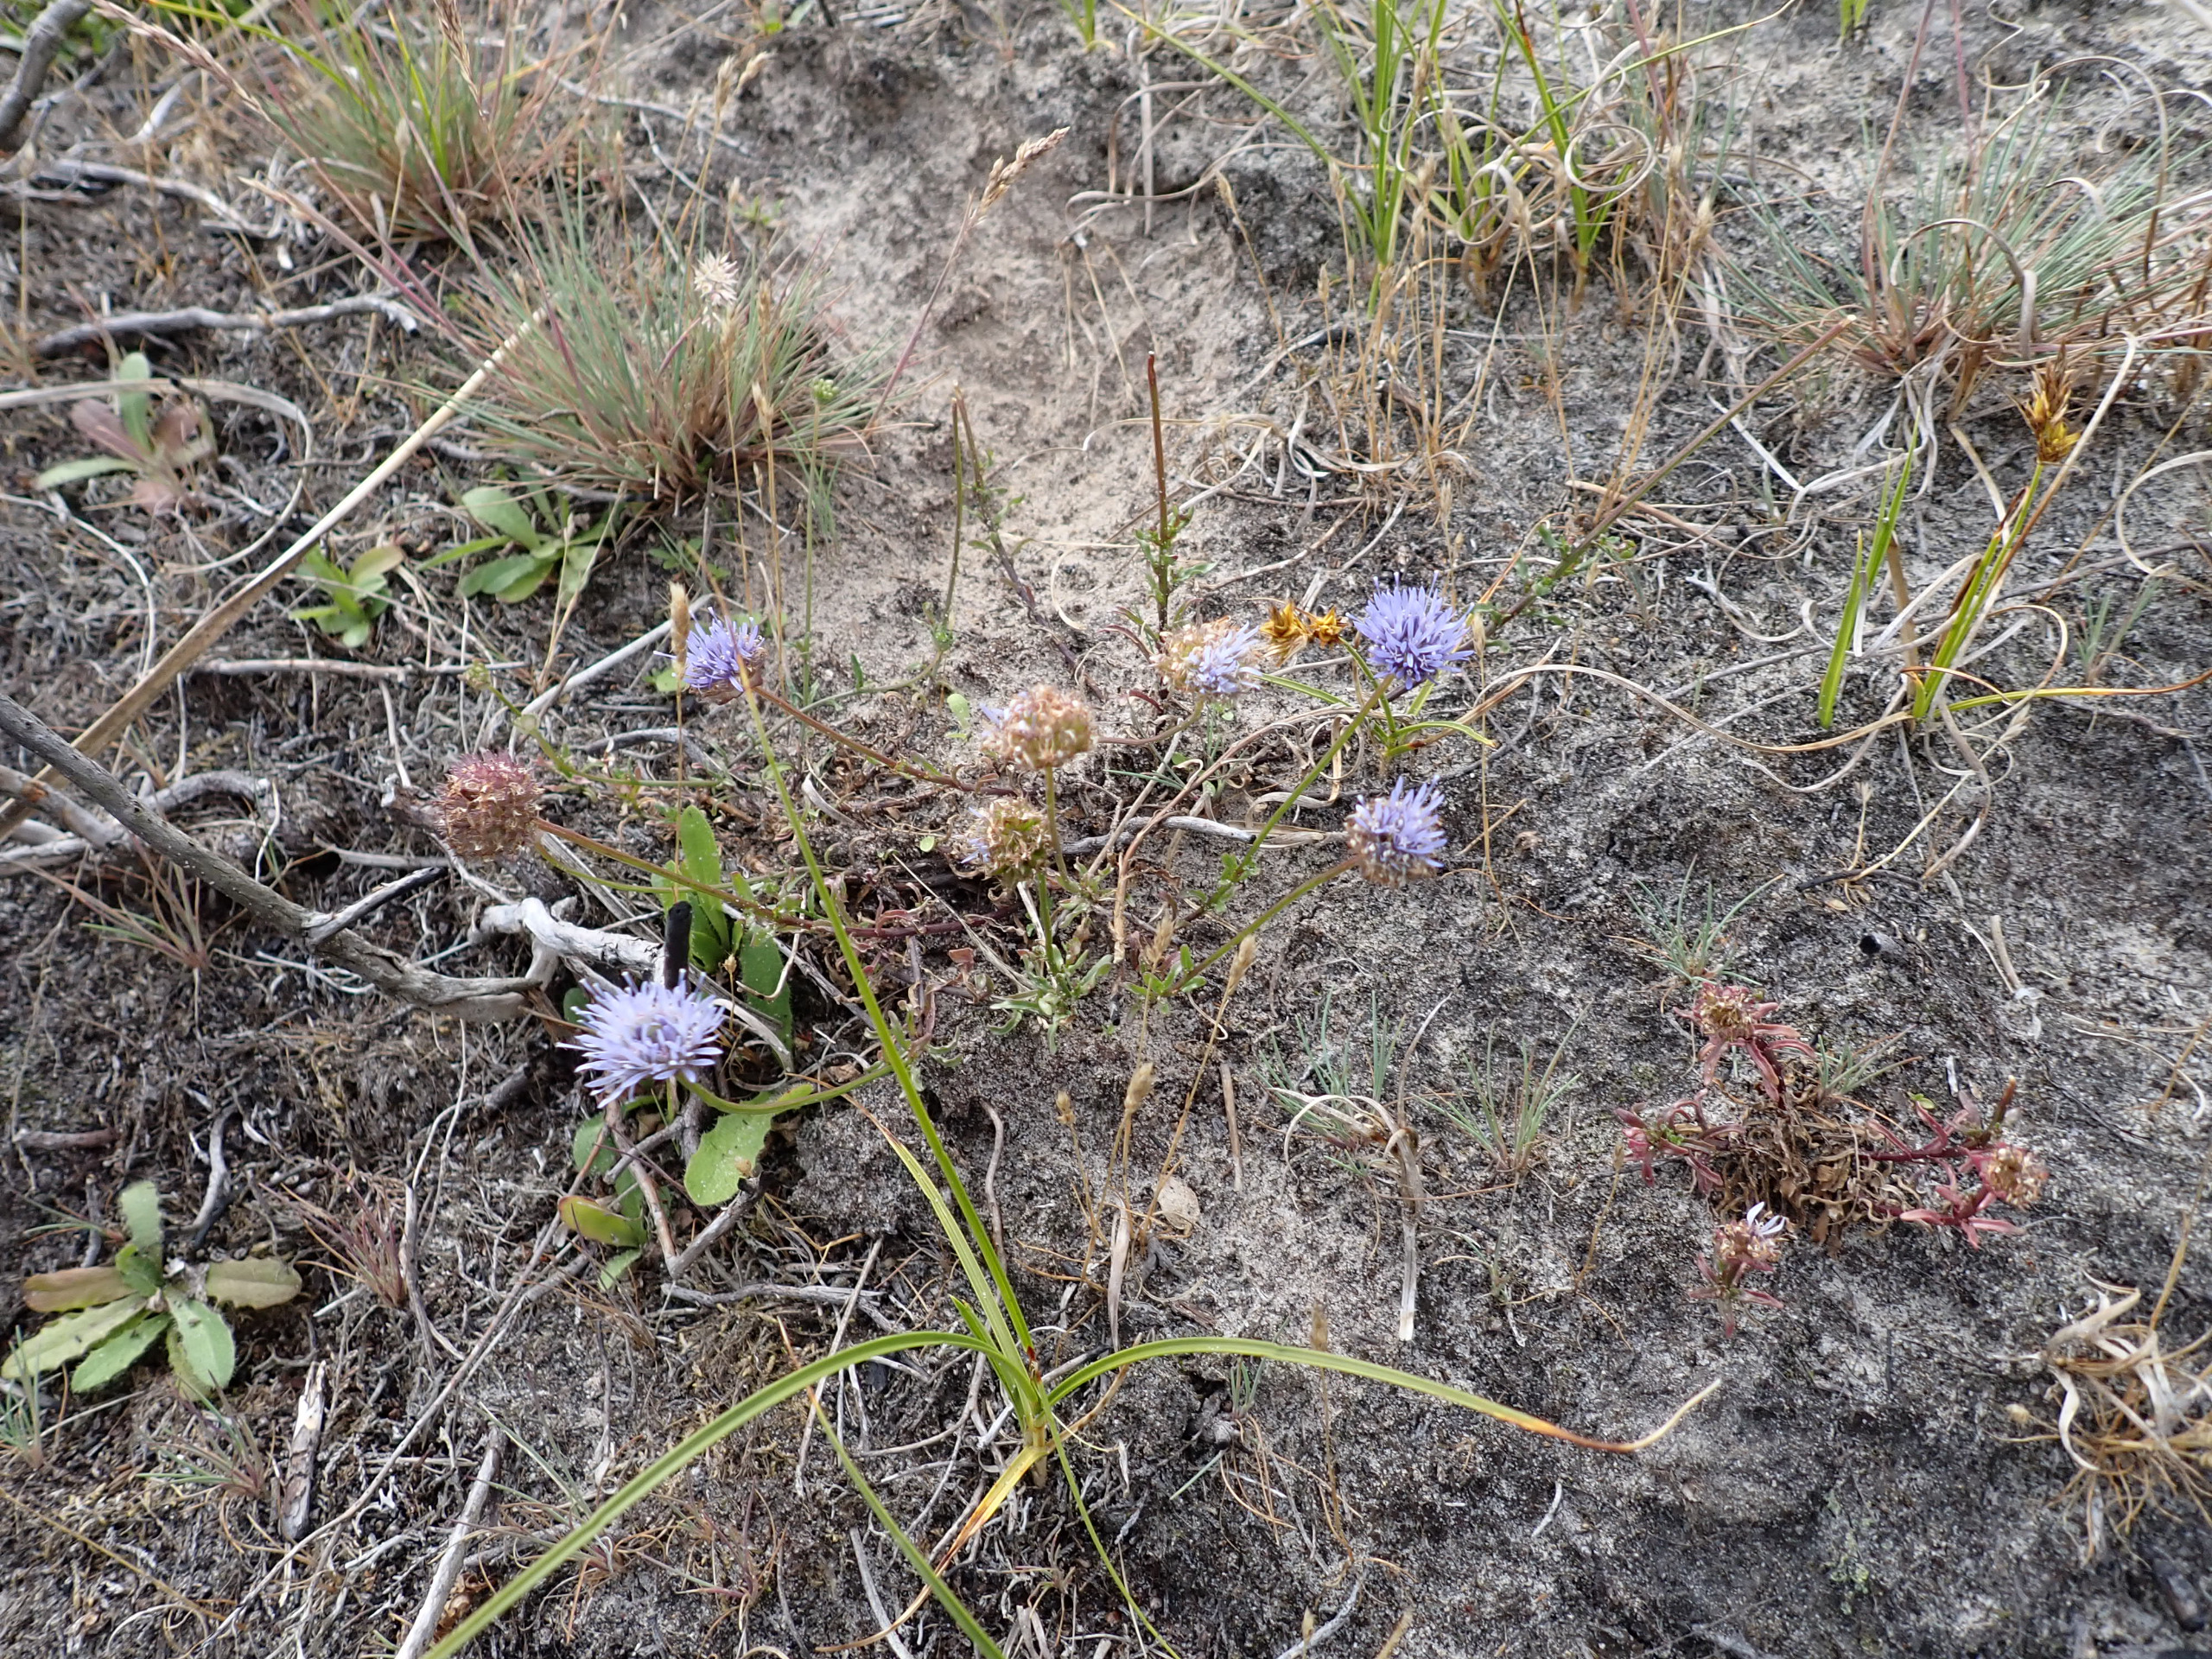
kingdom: Plantae
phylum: Tracheophyta
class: Magnoliopsida
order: Asterales
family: Campanulaceae
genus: Jasione
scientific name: Jasione montana
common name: Blåmunke
